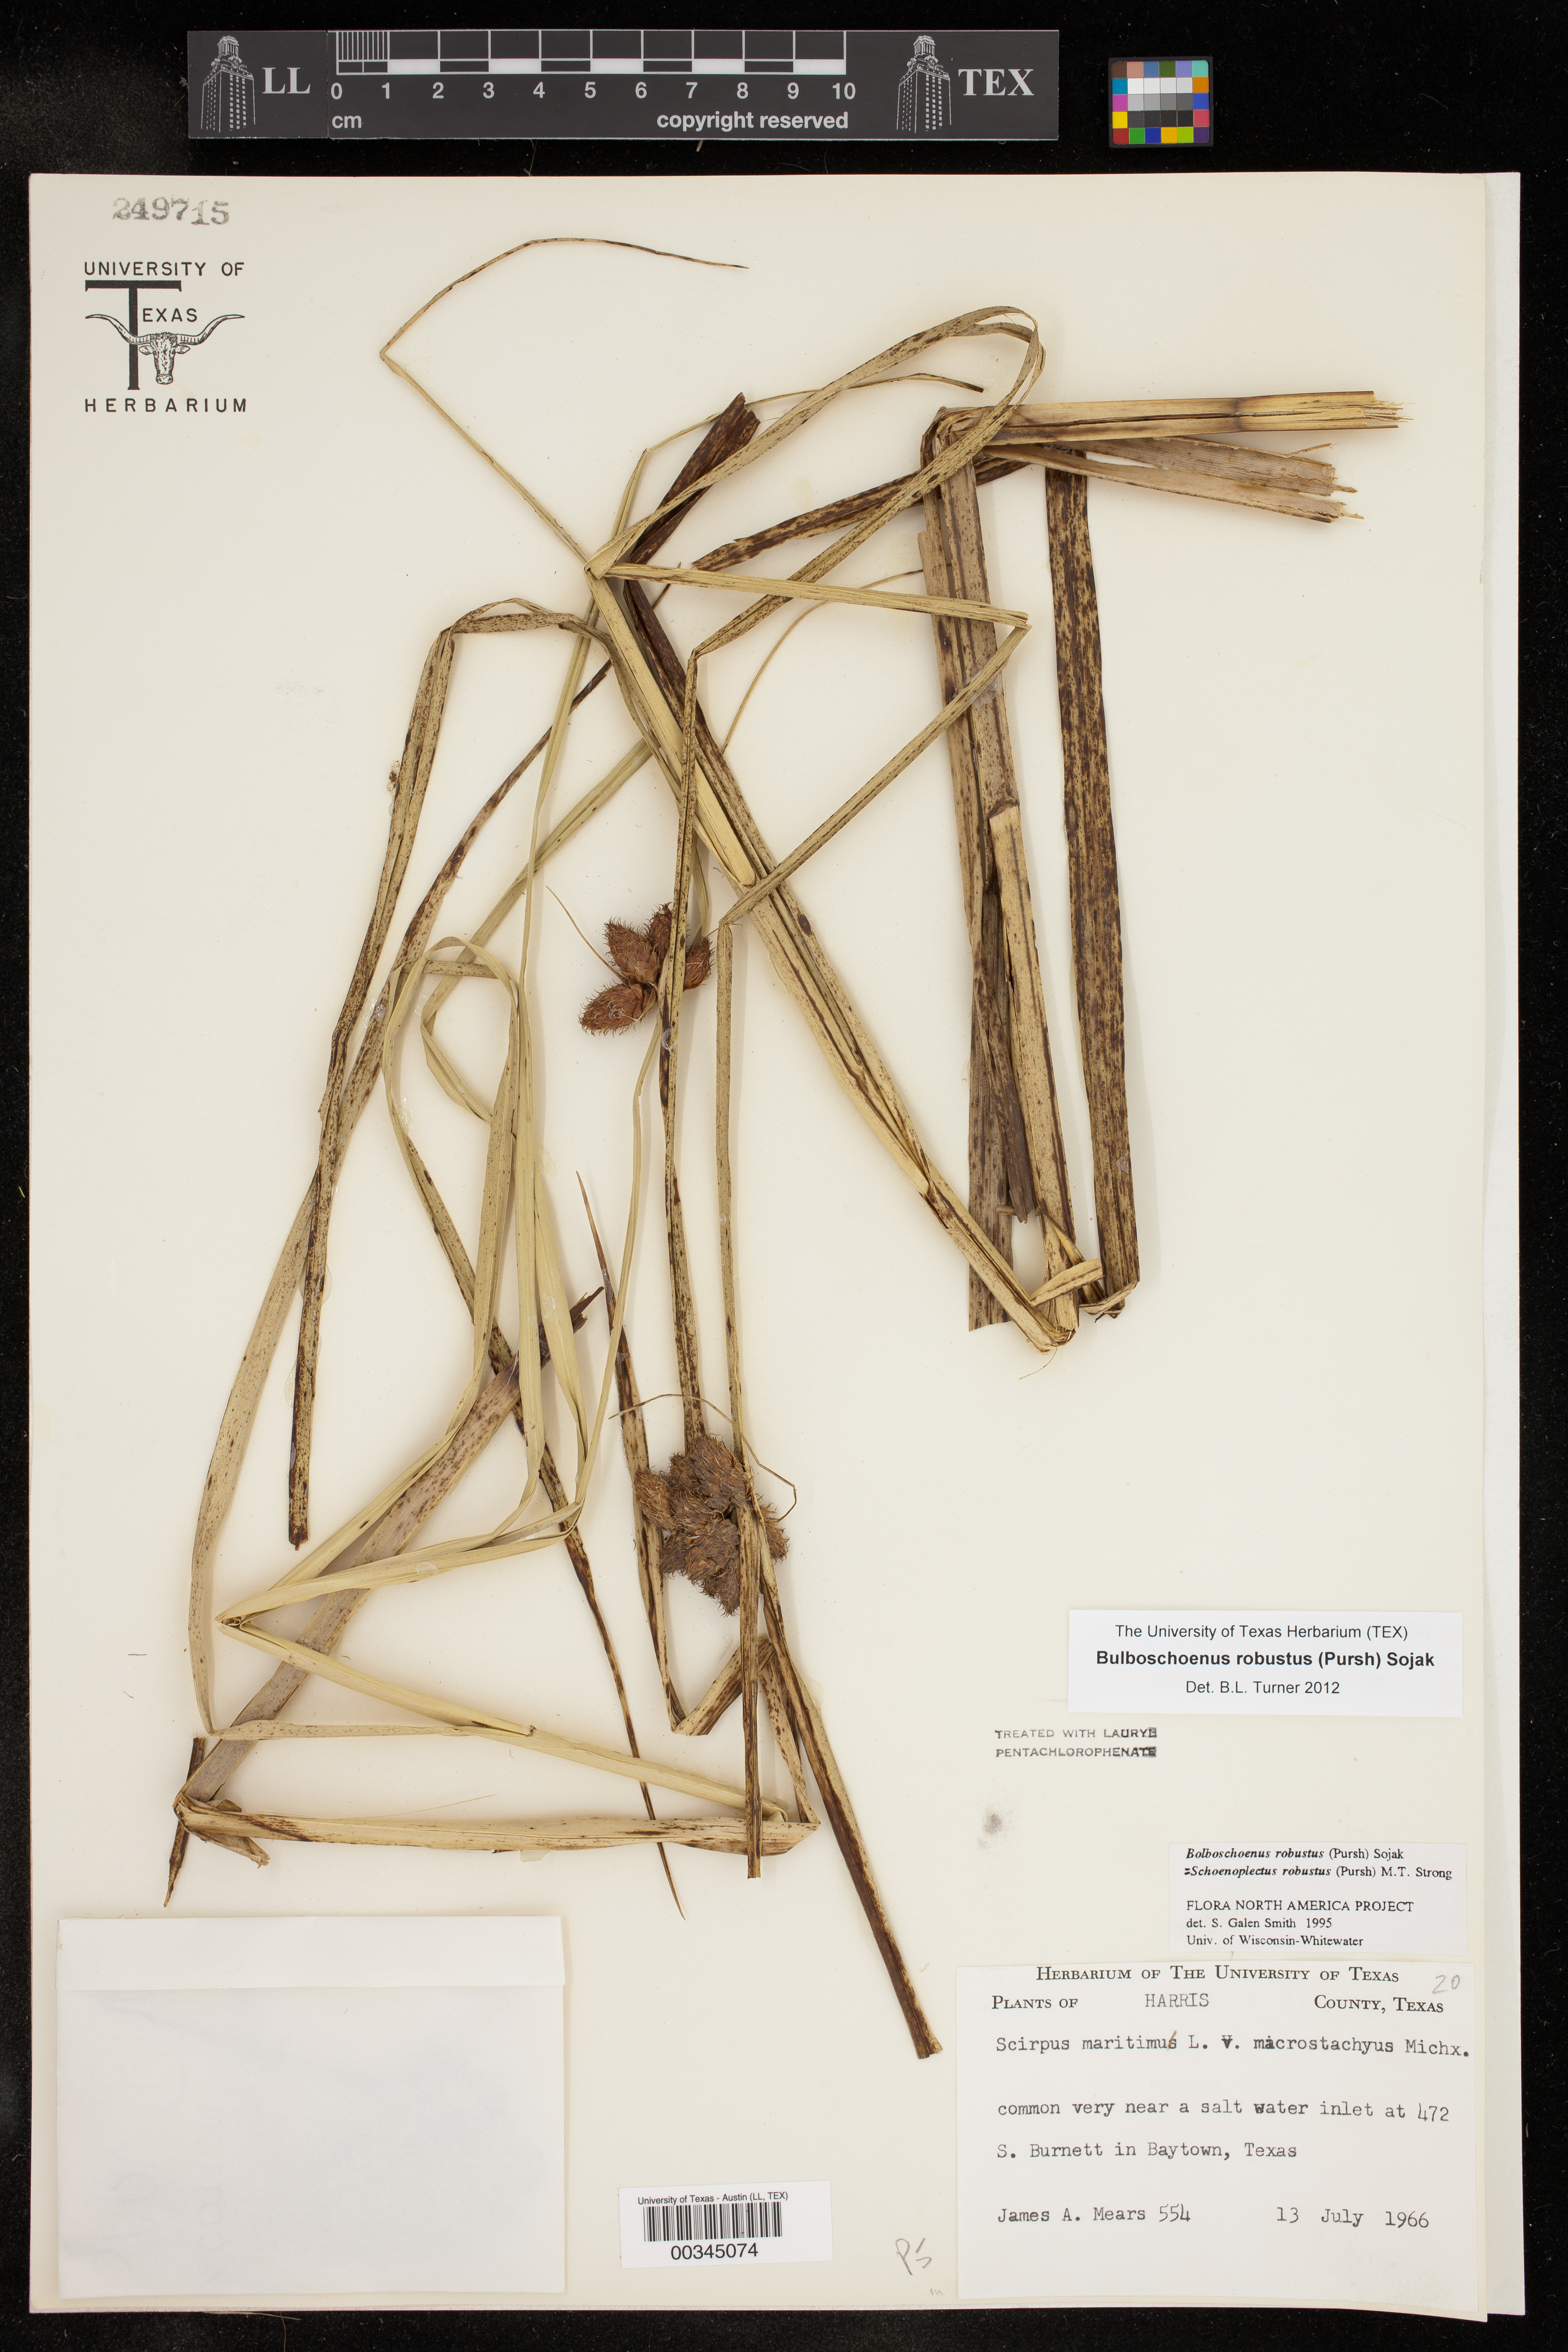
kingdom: Plantae
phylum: Tracheophyta
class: Liliopsida
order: Poales
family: Cyperaceae
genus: Bolboschoenus
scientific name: Bolboschoenus robustus
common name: Seacoast bulrush
